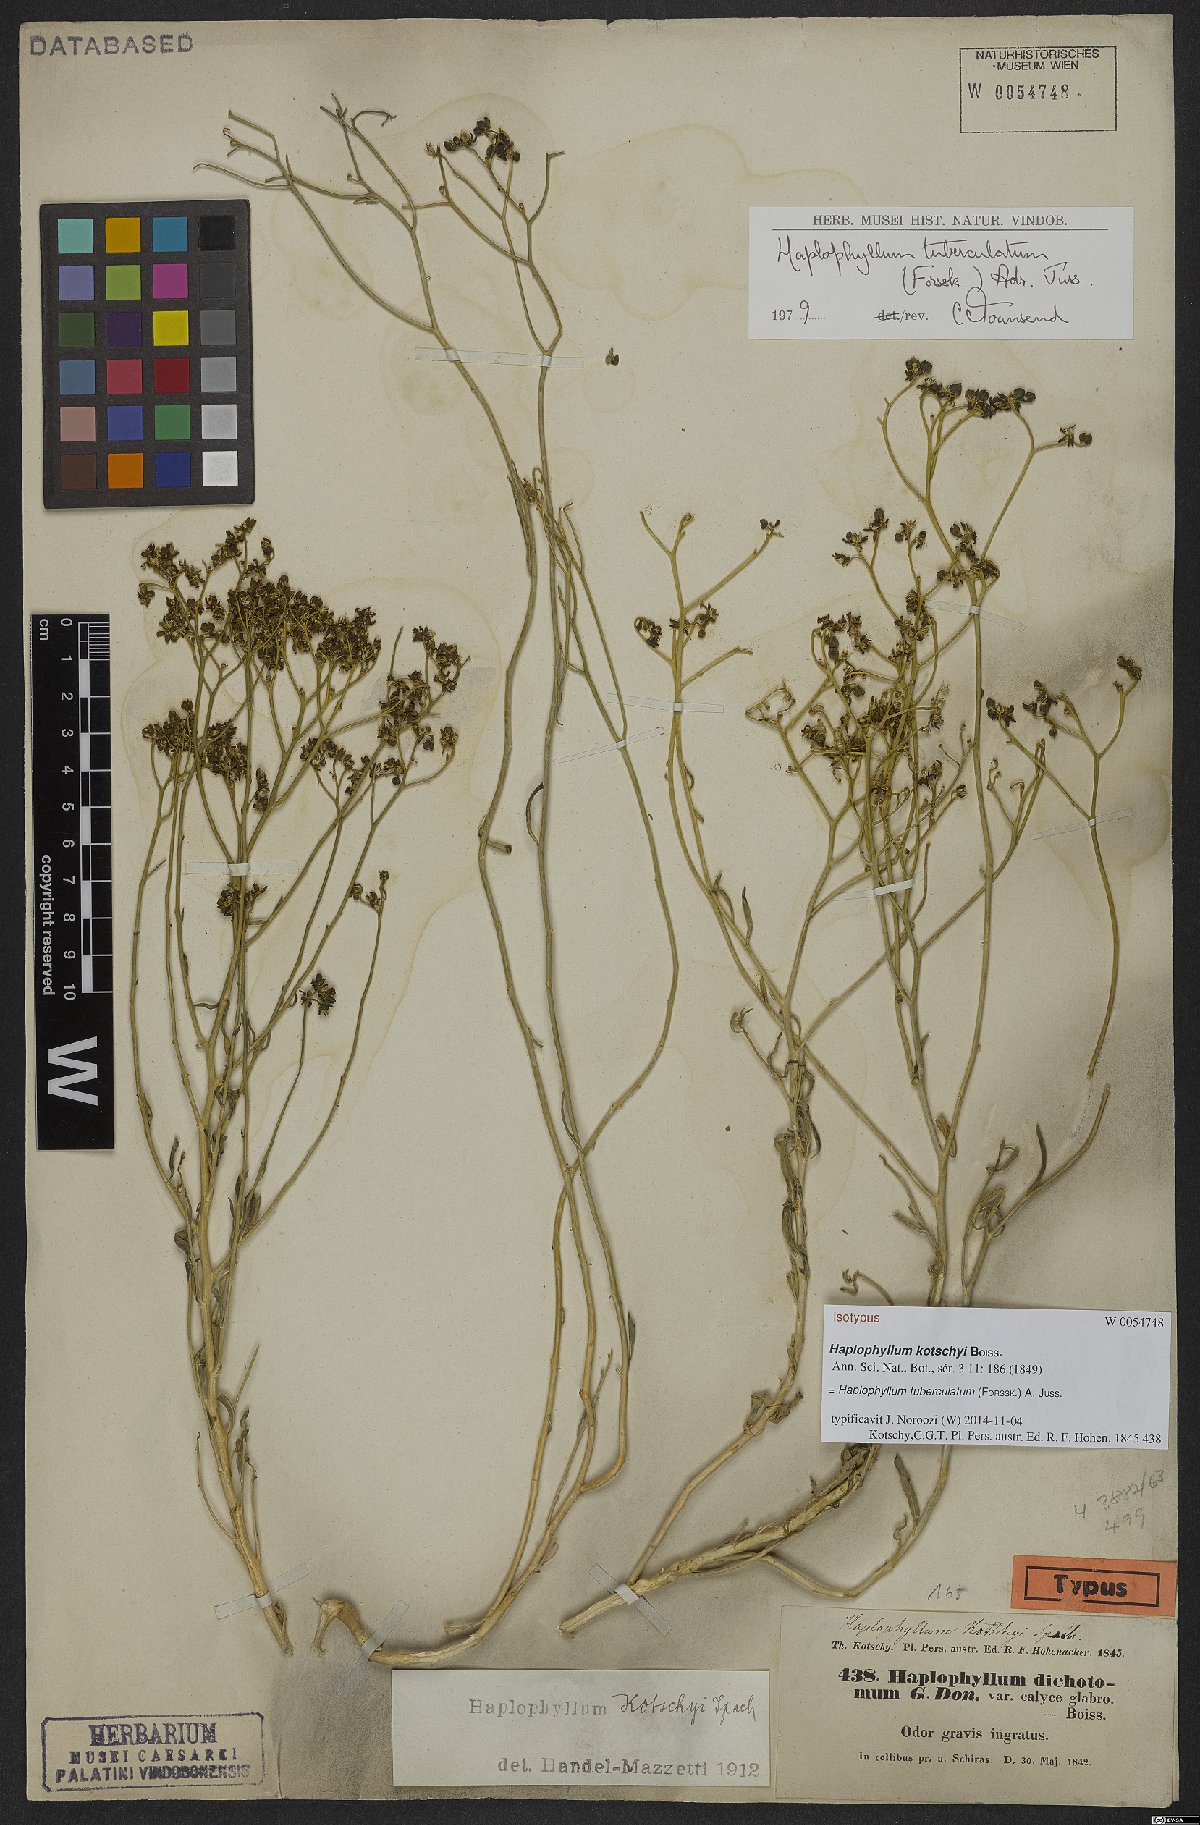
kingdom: Plantae
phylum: Tracheophyta
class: Magnoliopsida
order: Sapindales
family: Rutaceae
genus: Haplophyllum
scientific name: Haplophyllum tuberculatum
